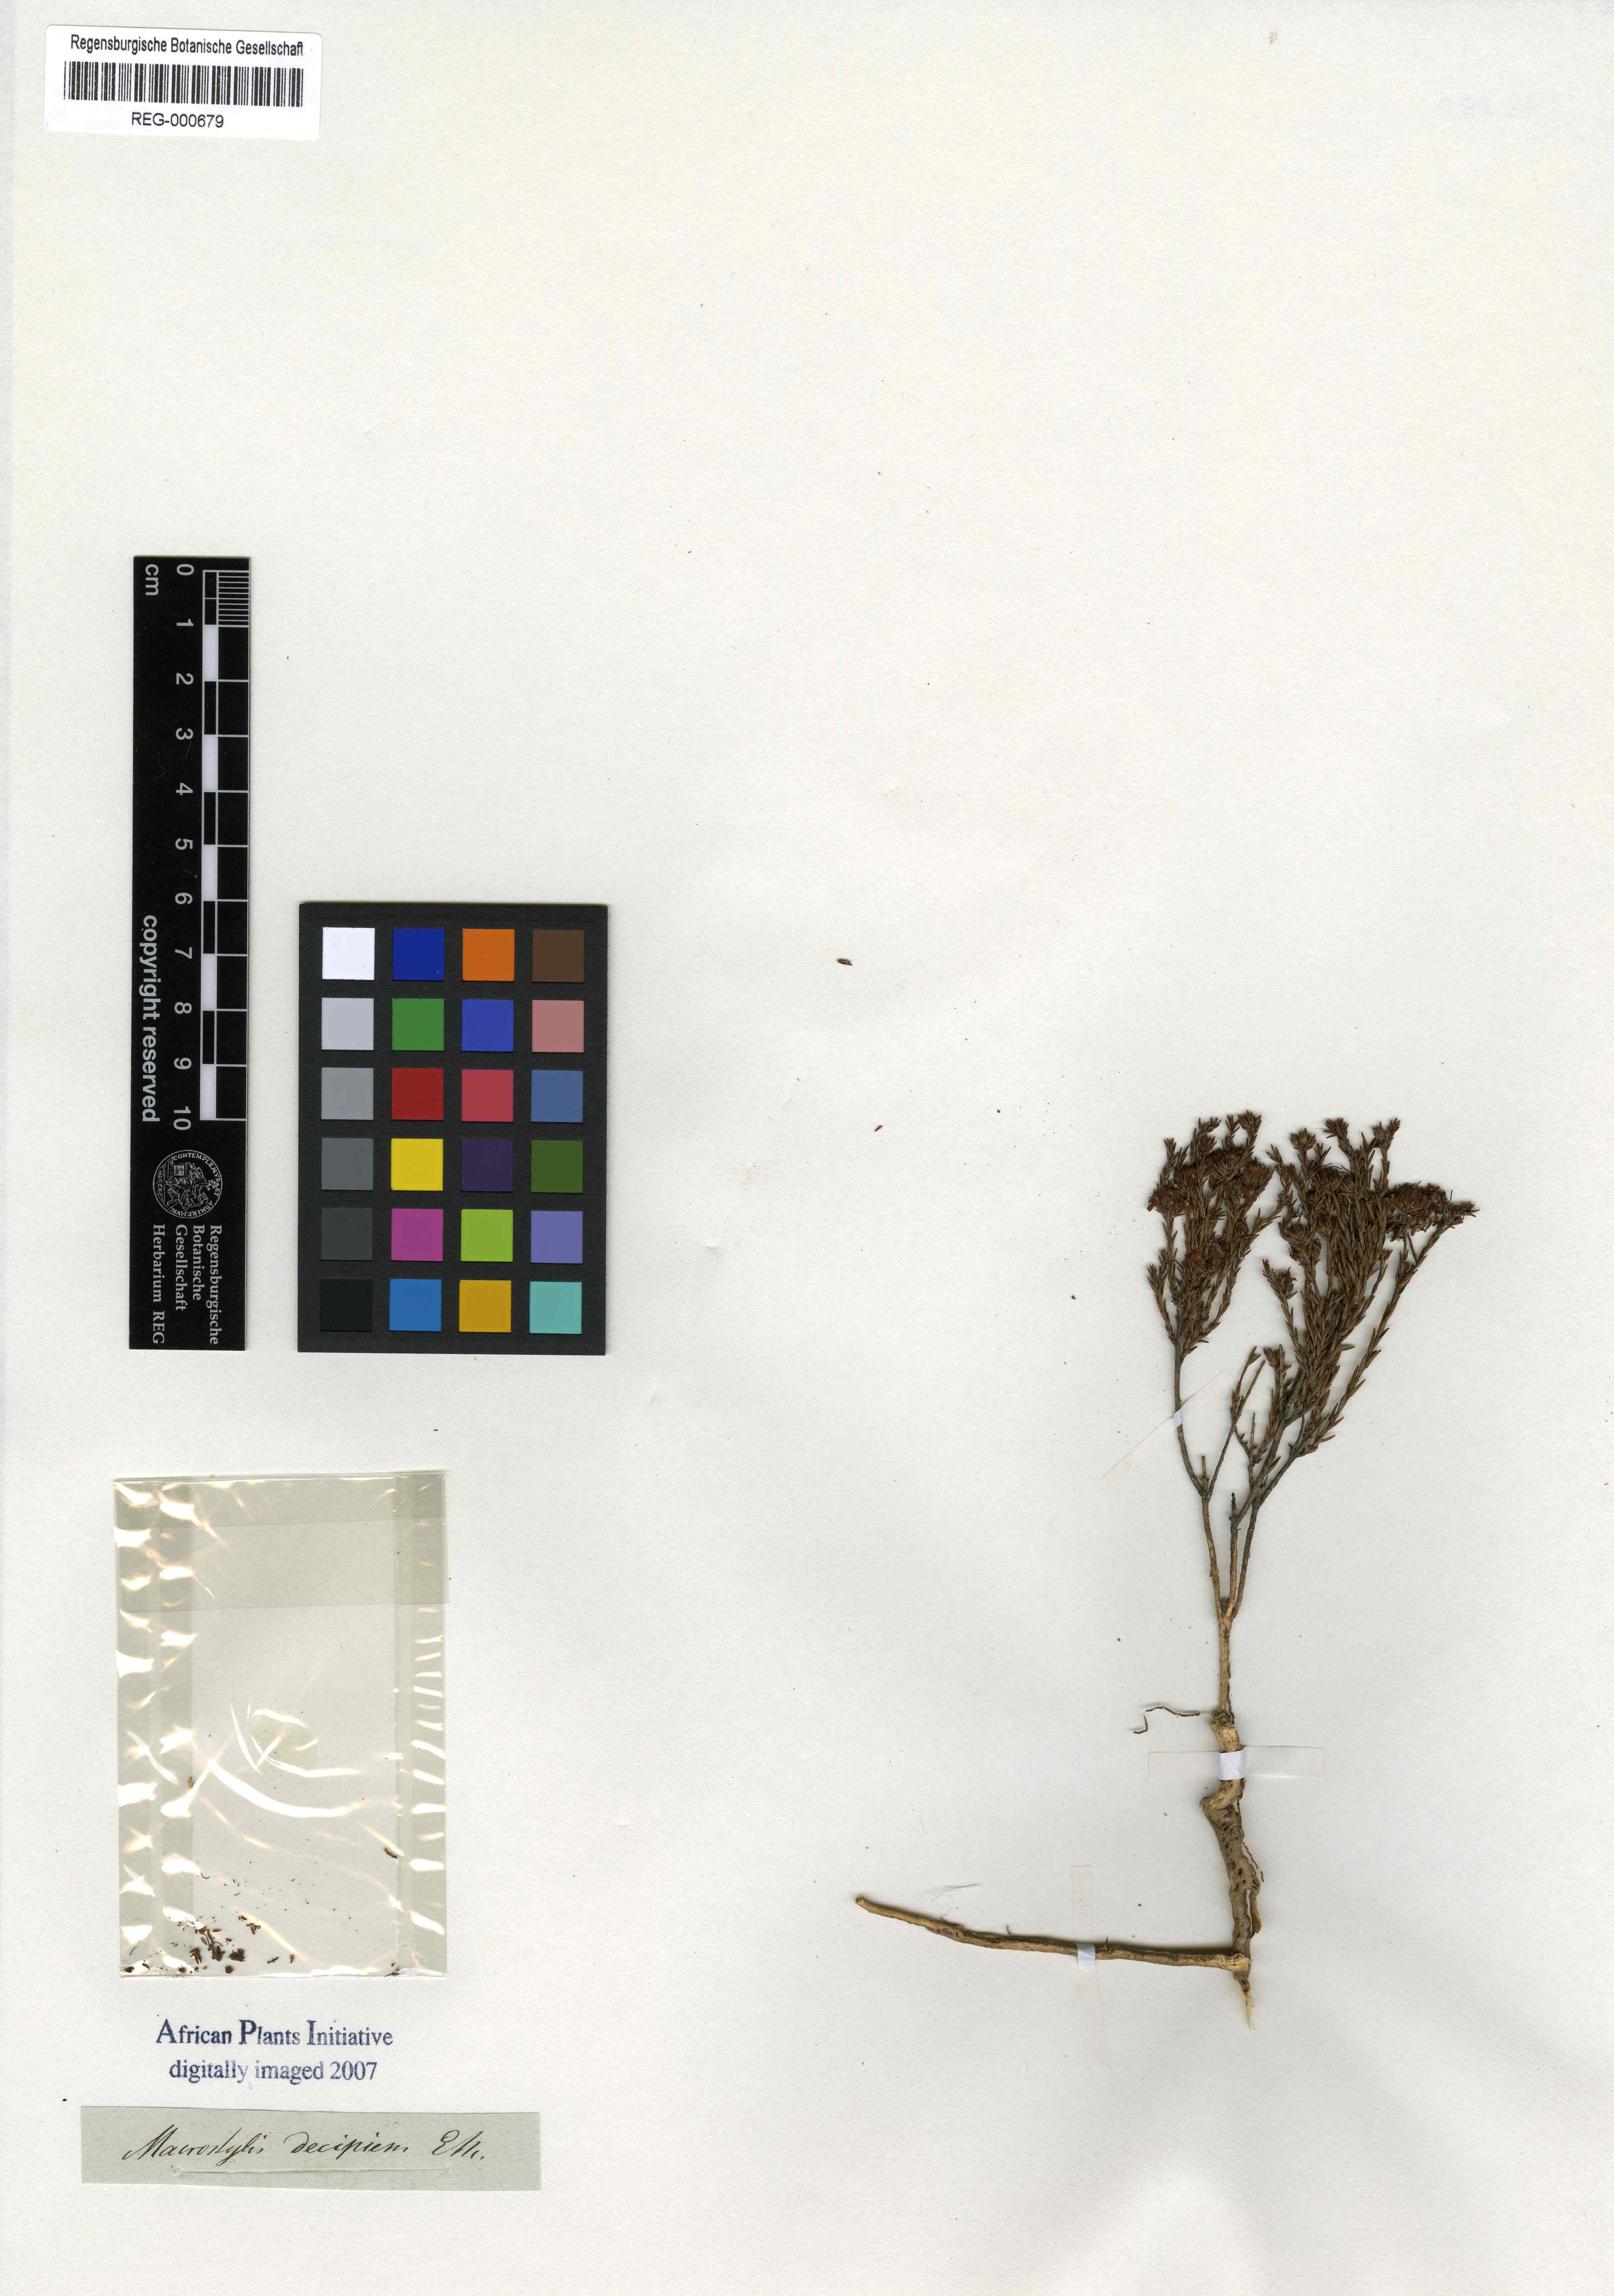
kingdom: Plantae
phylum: Tracheophyta
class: Magnoliopsida
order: Sapindales
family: Rutaceae
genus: Macrostylis
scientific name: Macrostylis decipiens
